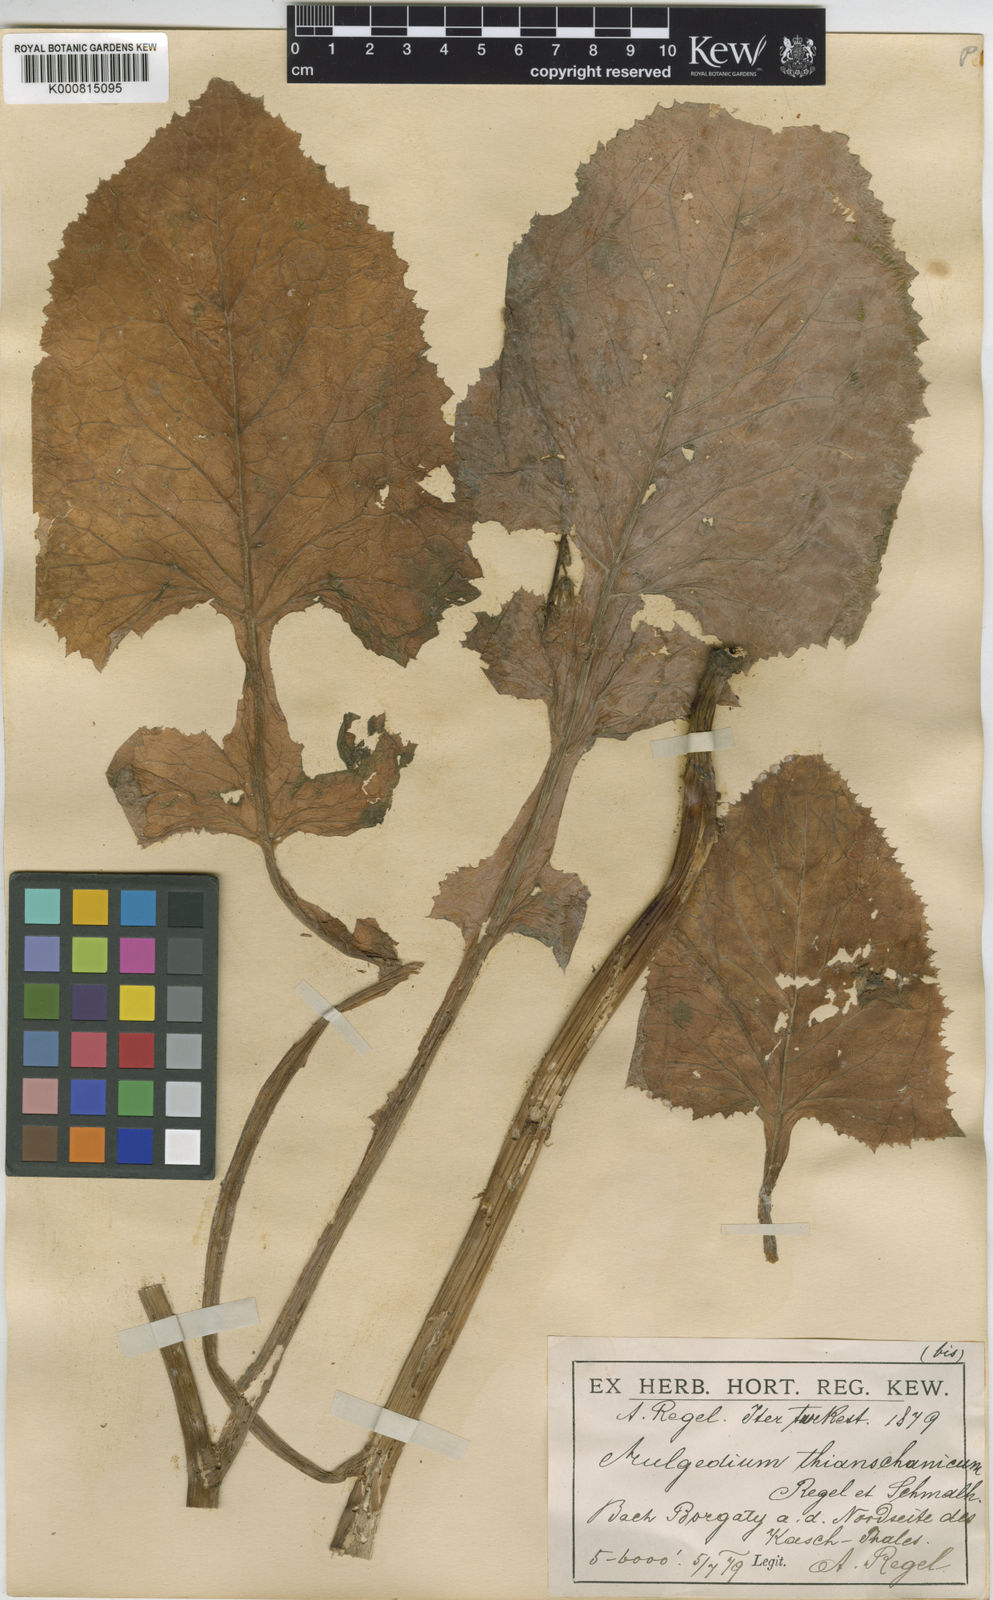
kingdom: Plantae
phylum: Tracheophyta
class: Magnoliopsida
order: Asterales
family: Asteraceae
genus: Cicerbita
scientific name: Cicerbita thianschanica
